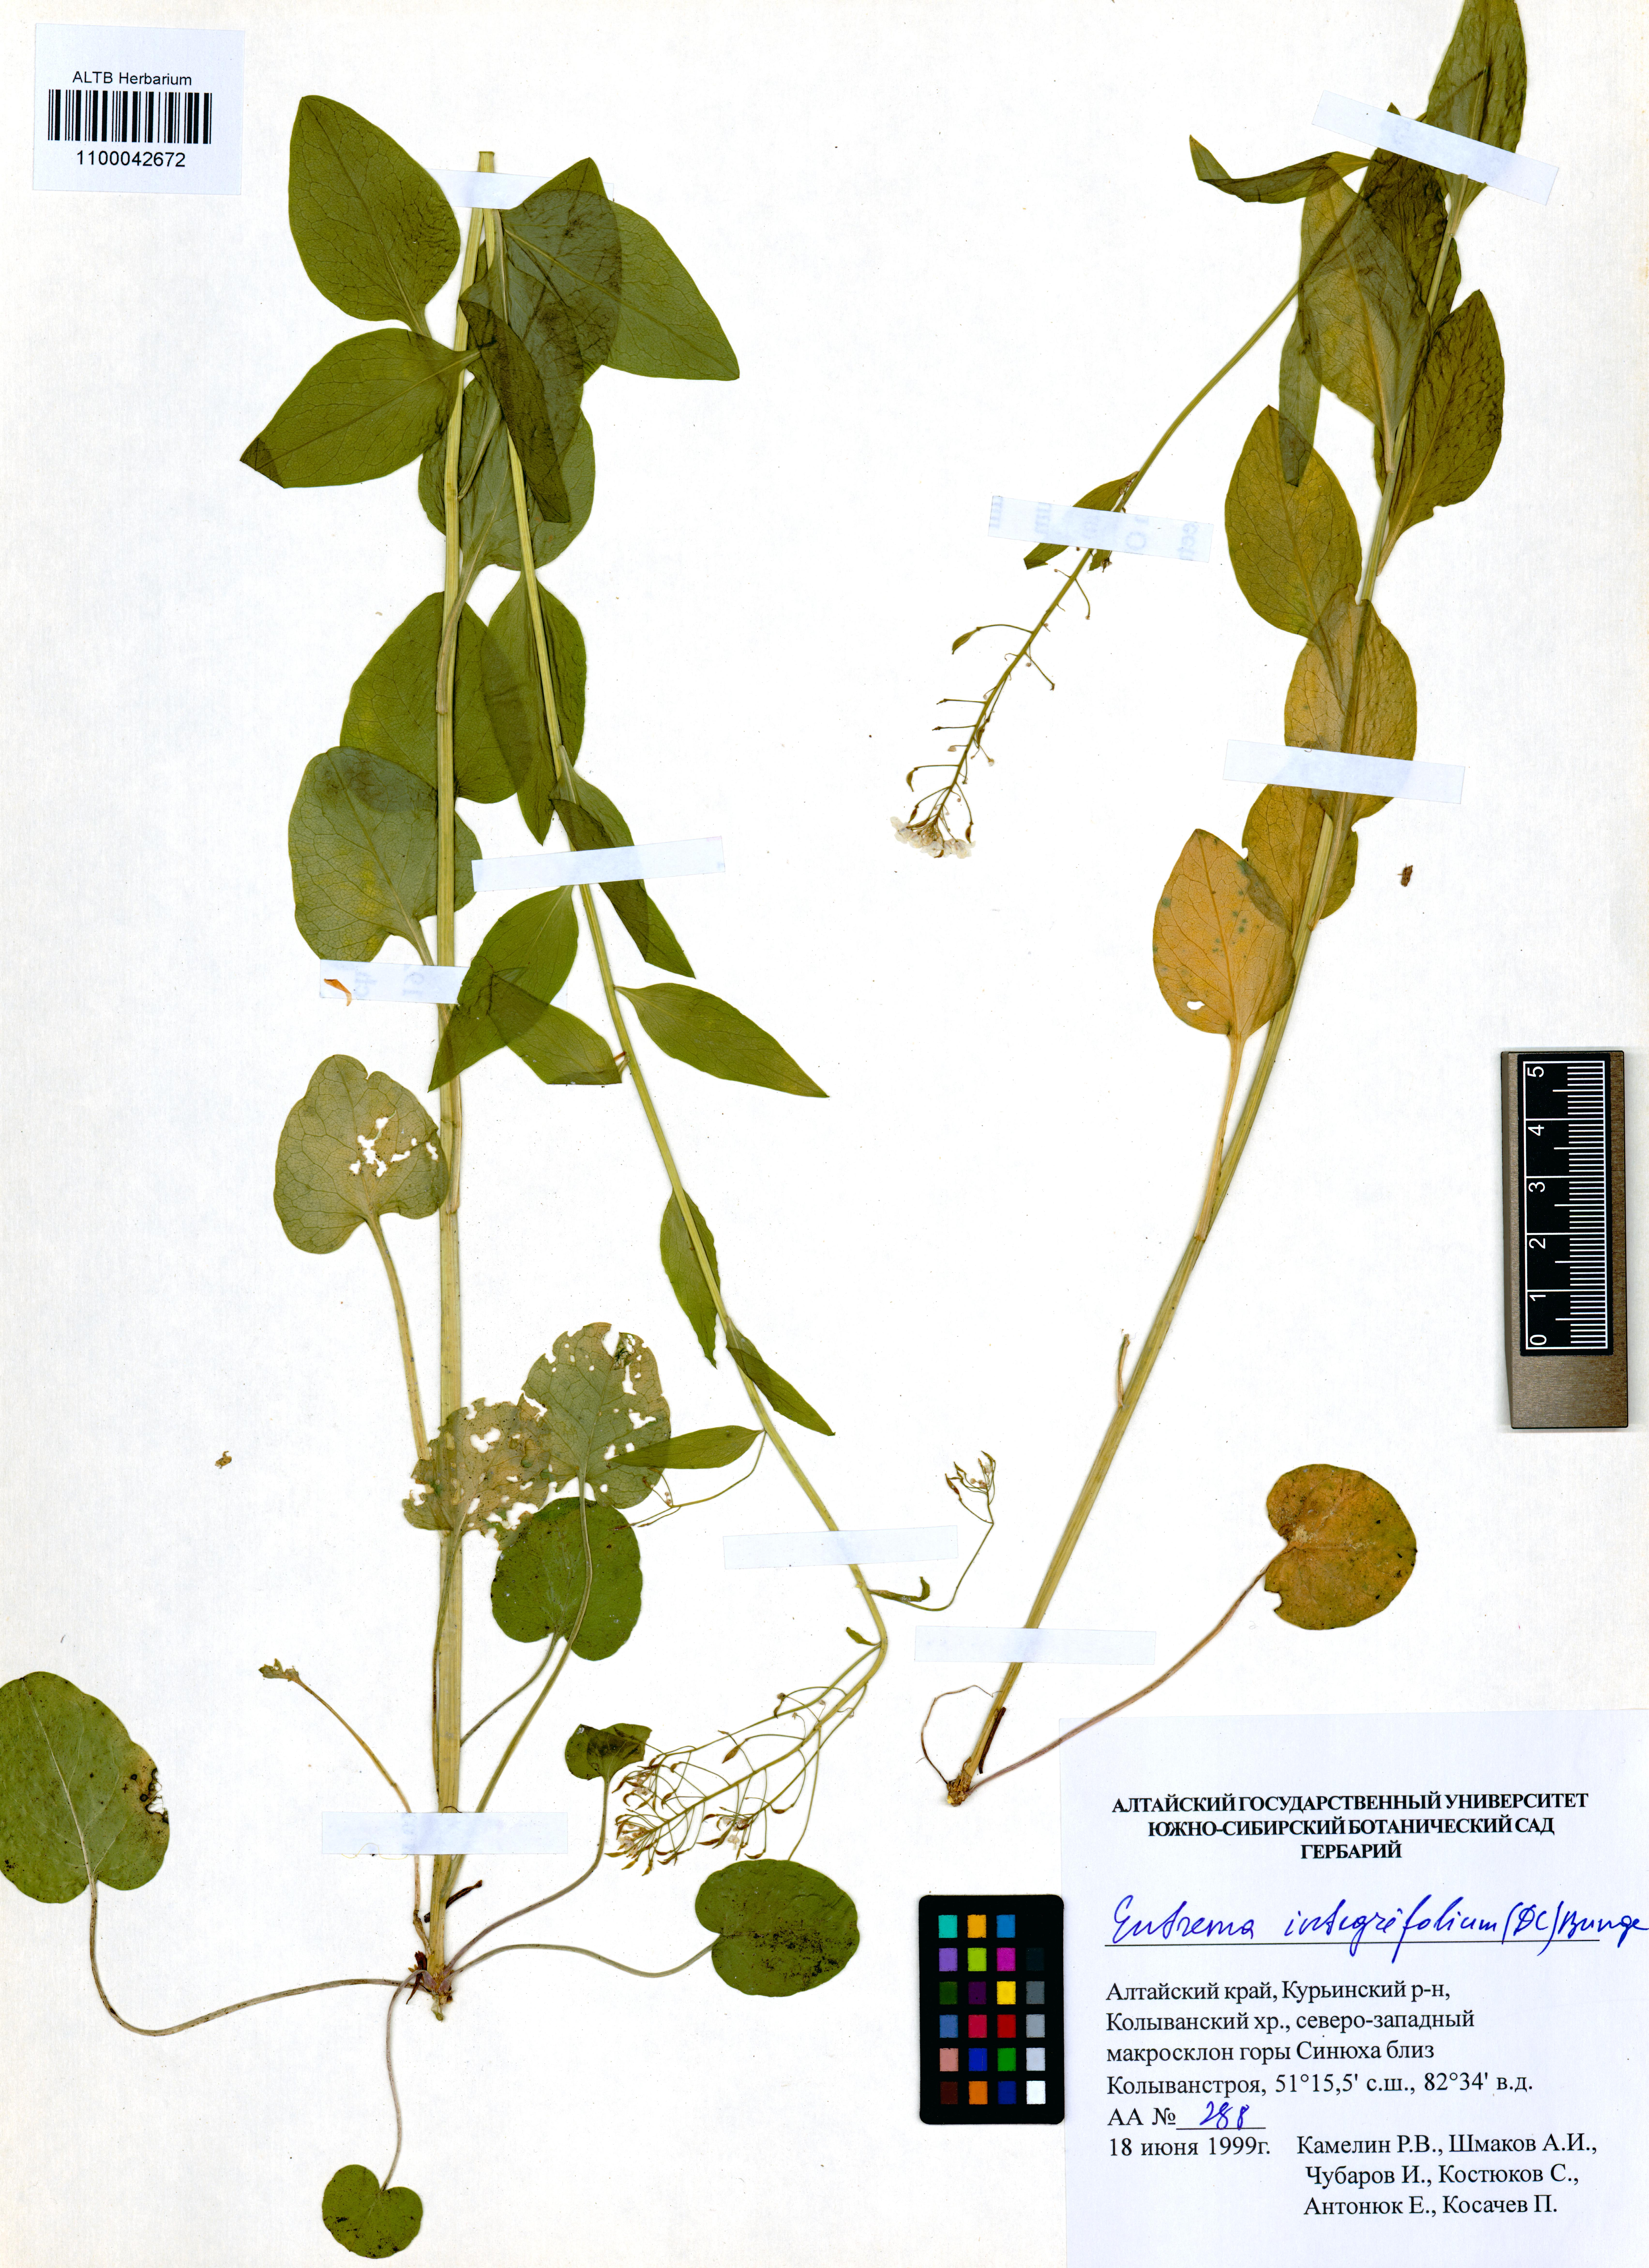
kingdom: Plantae
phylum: Tracheophyta
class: Magnoliopsida
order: Brassicales
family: Brassicaceae
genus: Eutrema
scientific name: Eutrema integrifolium
